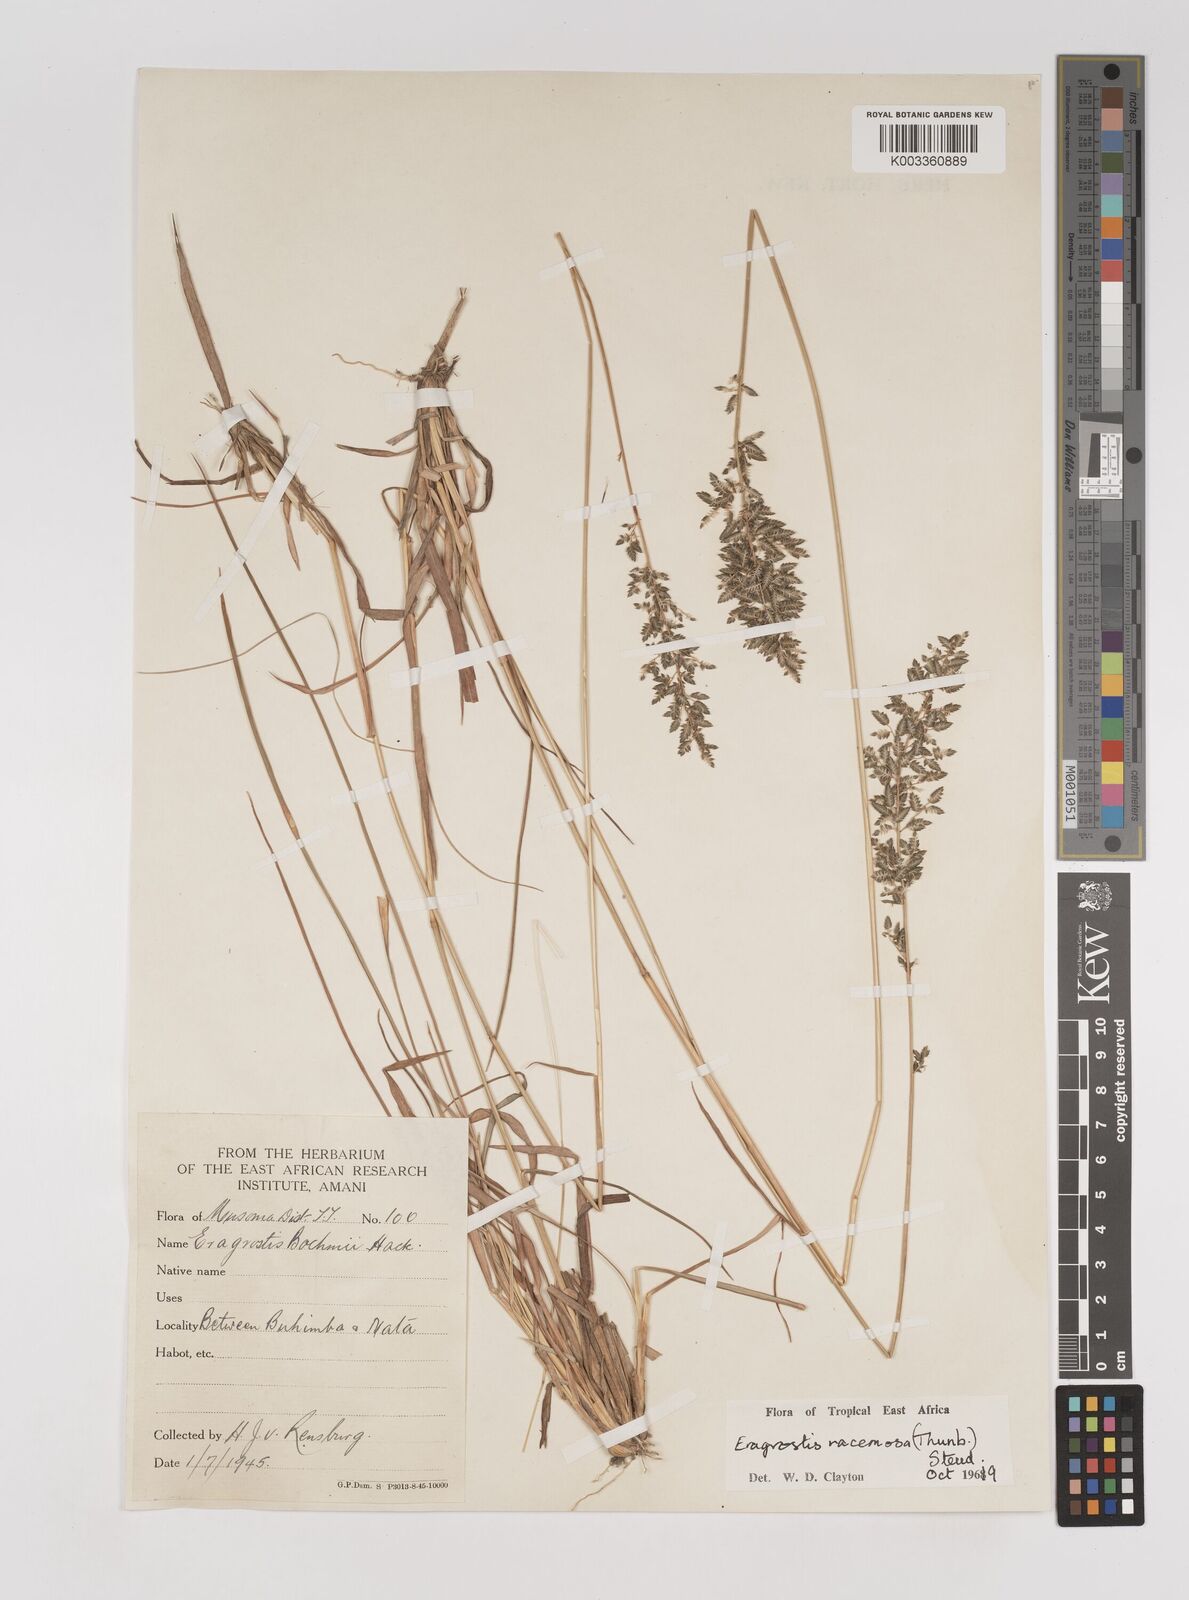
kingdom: Plantae
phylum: Tracheophyta
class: Liliopsida
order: Poales
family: Poaceae
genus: Eragrostis
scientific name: Eragrostis racemosa
